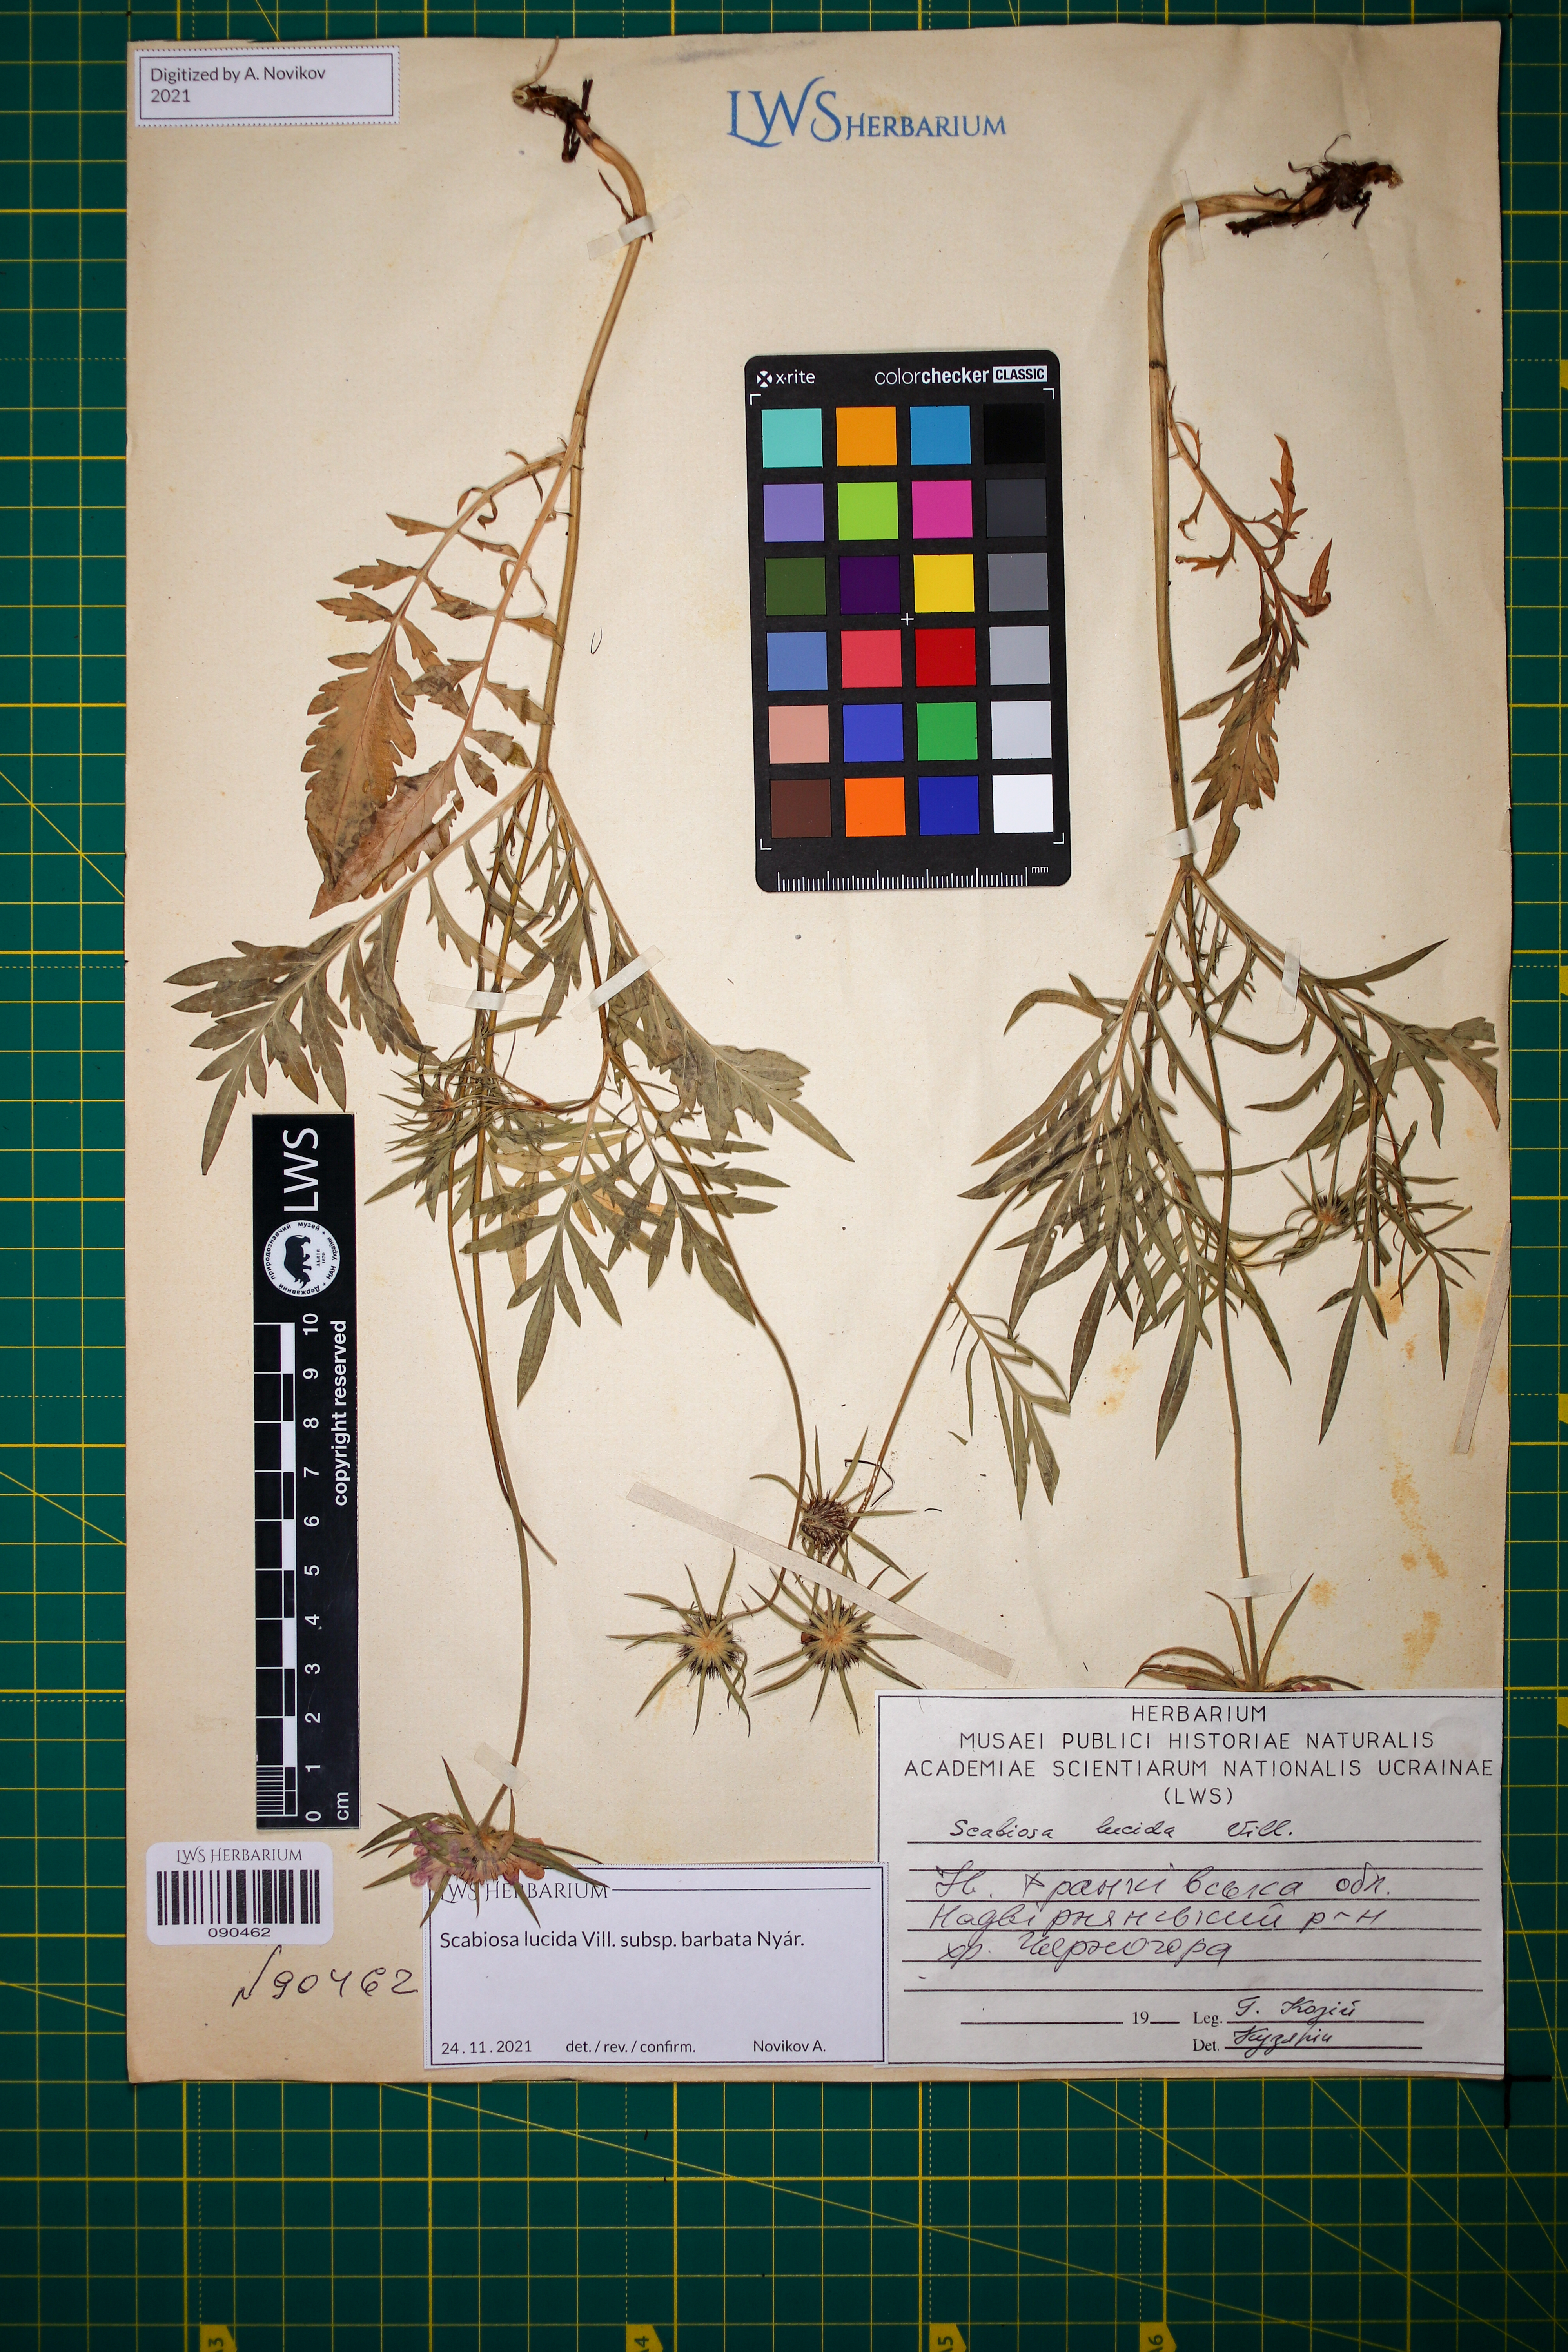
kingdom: Plantae
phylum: Tracheophyta
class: Magnoliopsida
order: Dipsacales
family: Caprifoliaceae
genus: Scabiosa
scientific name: Scabiosa lucida
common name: Shining scabious
